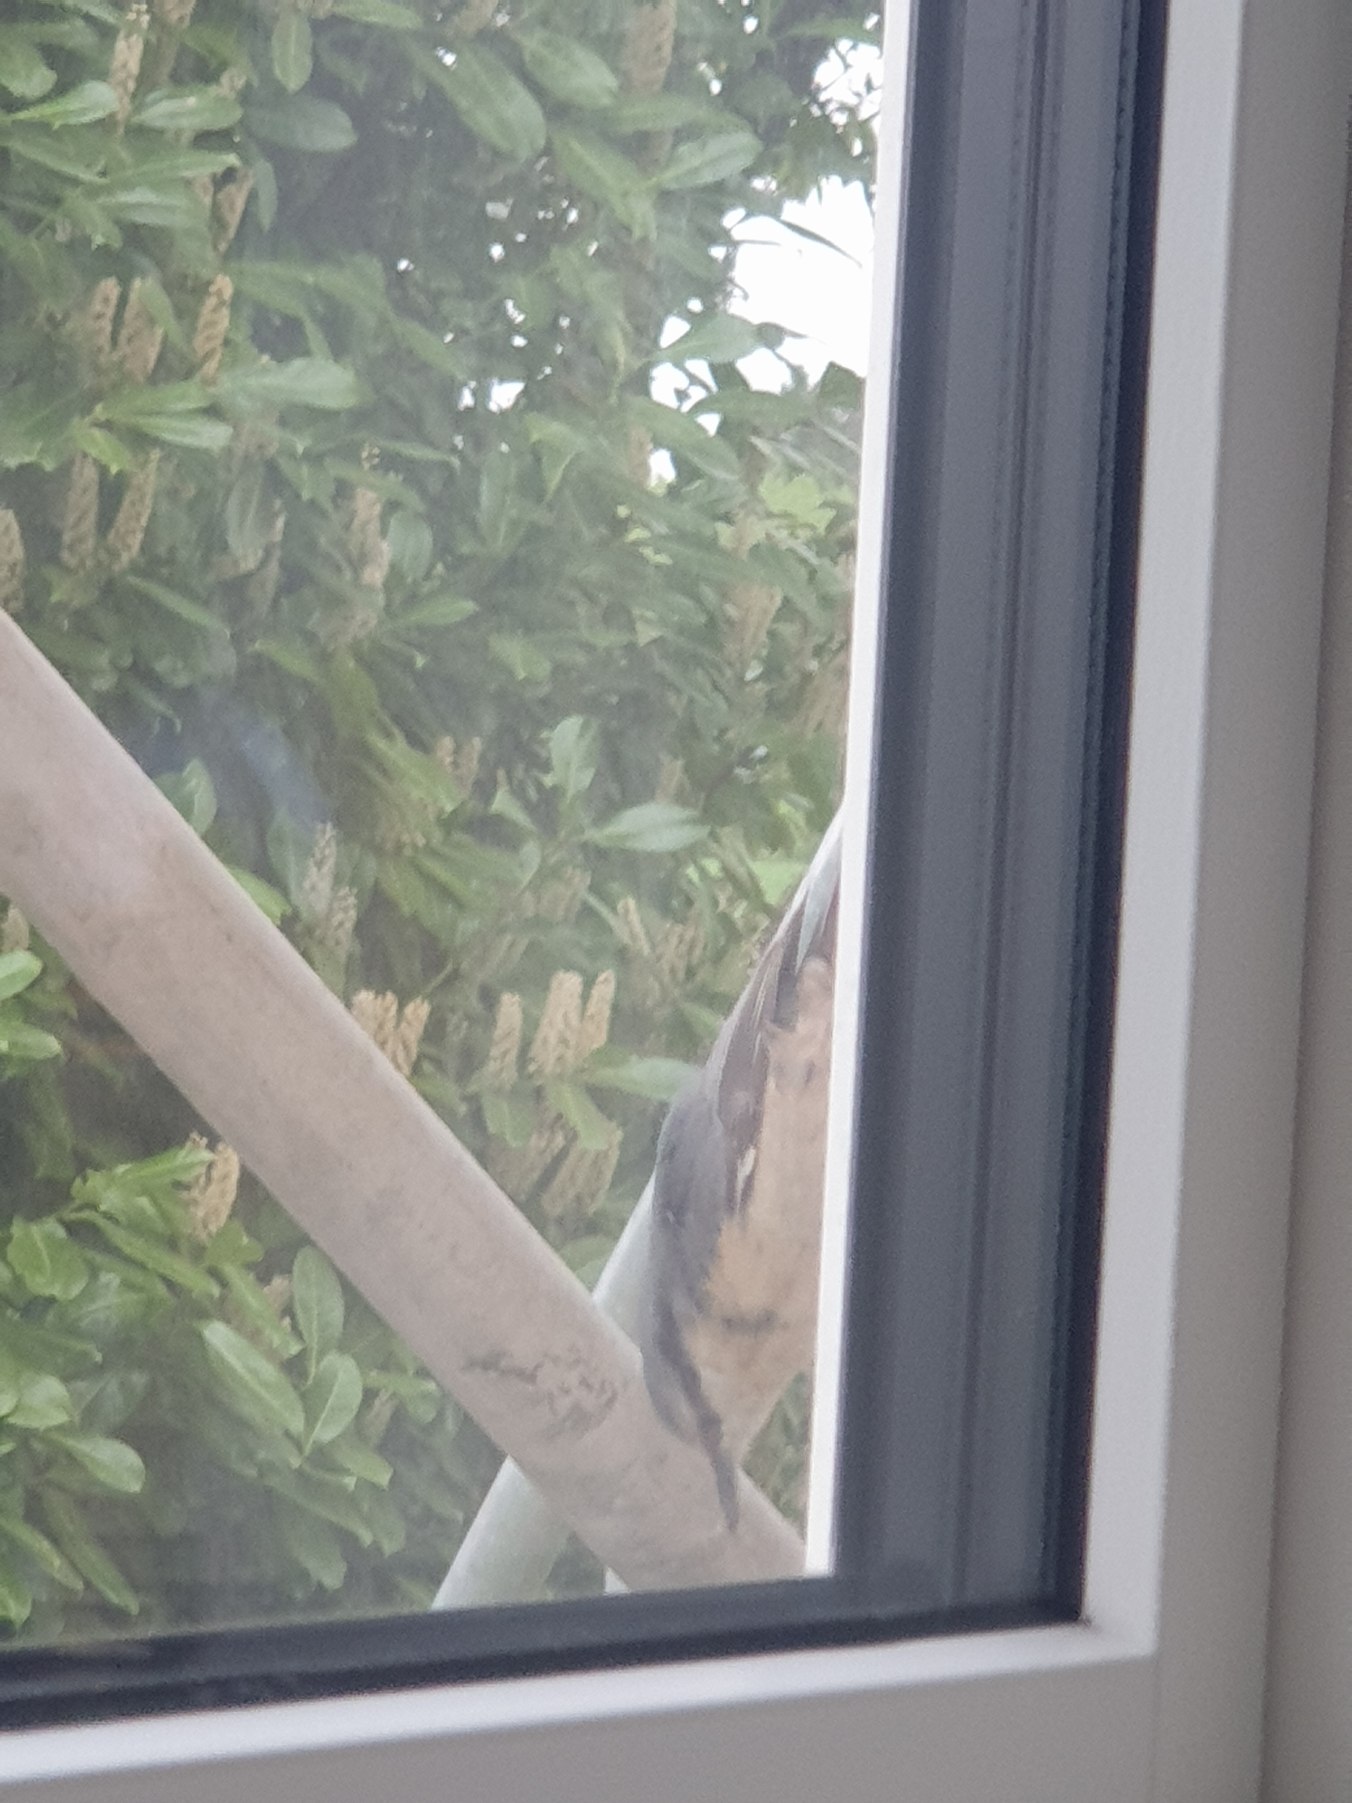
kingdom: Animalia
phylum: Chordata
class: Aves
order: Passeriformes
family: Sittidae
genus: Sitta
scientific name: Sitta europaea
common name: Spætmejse
